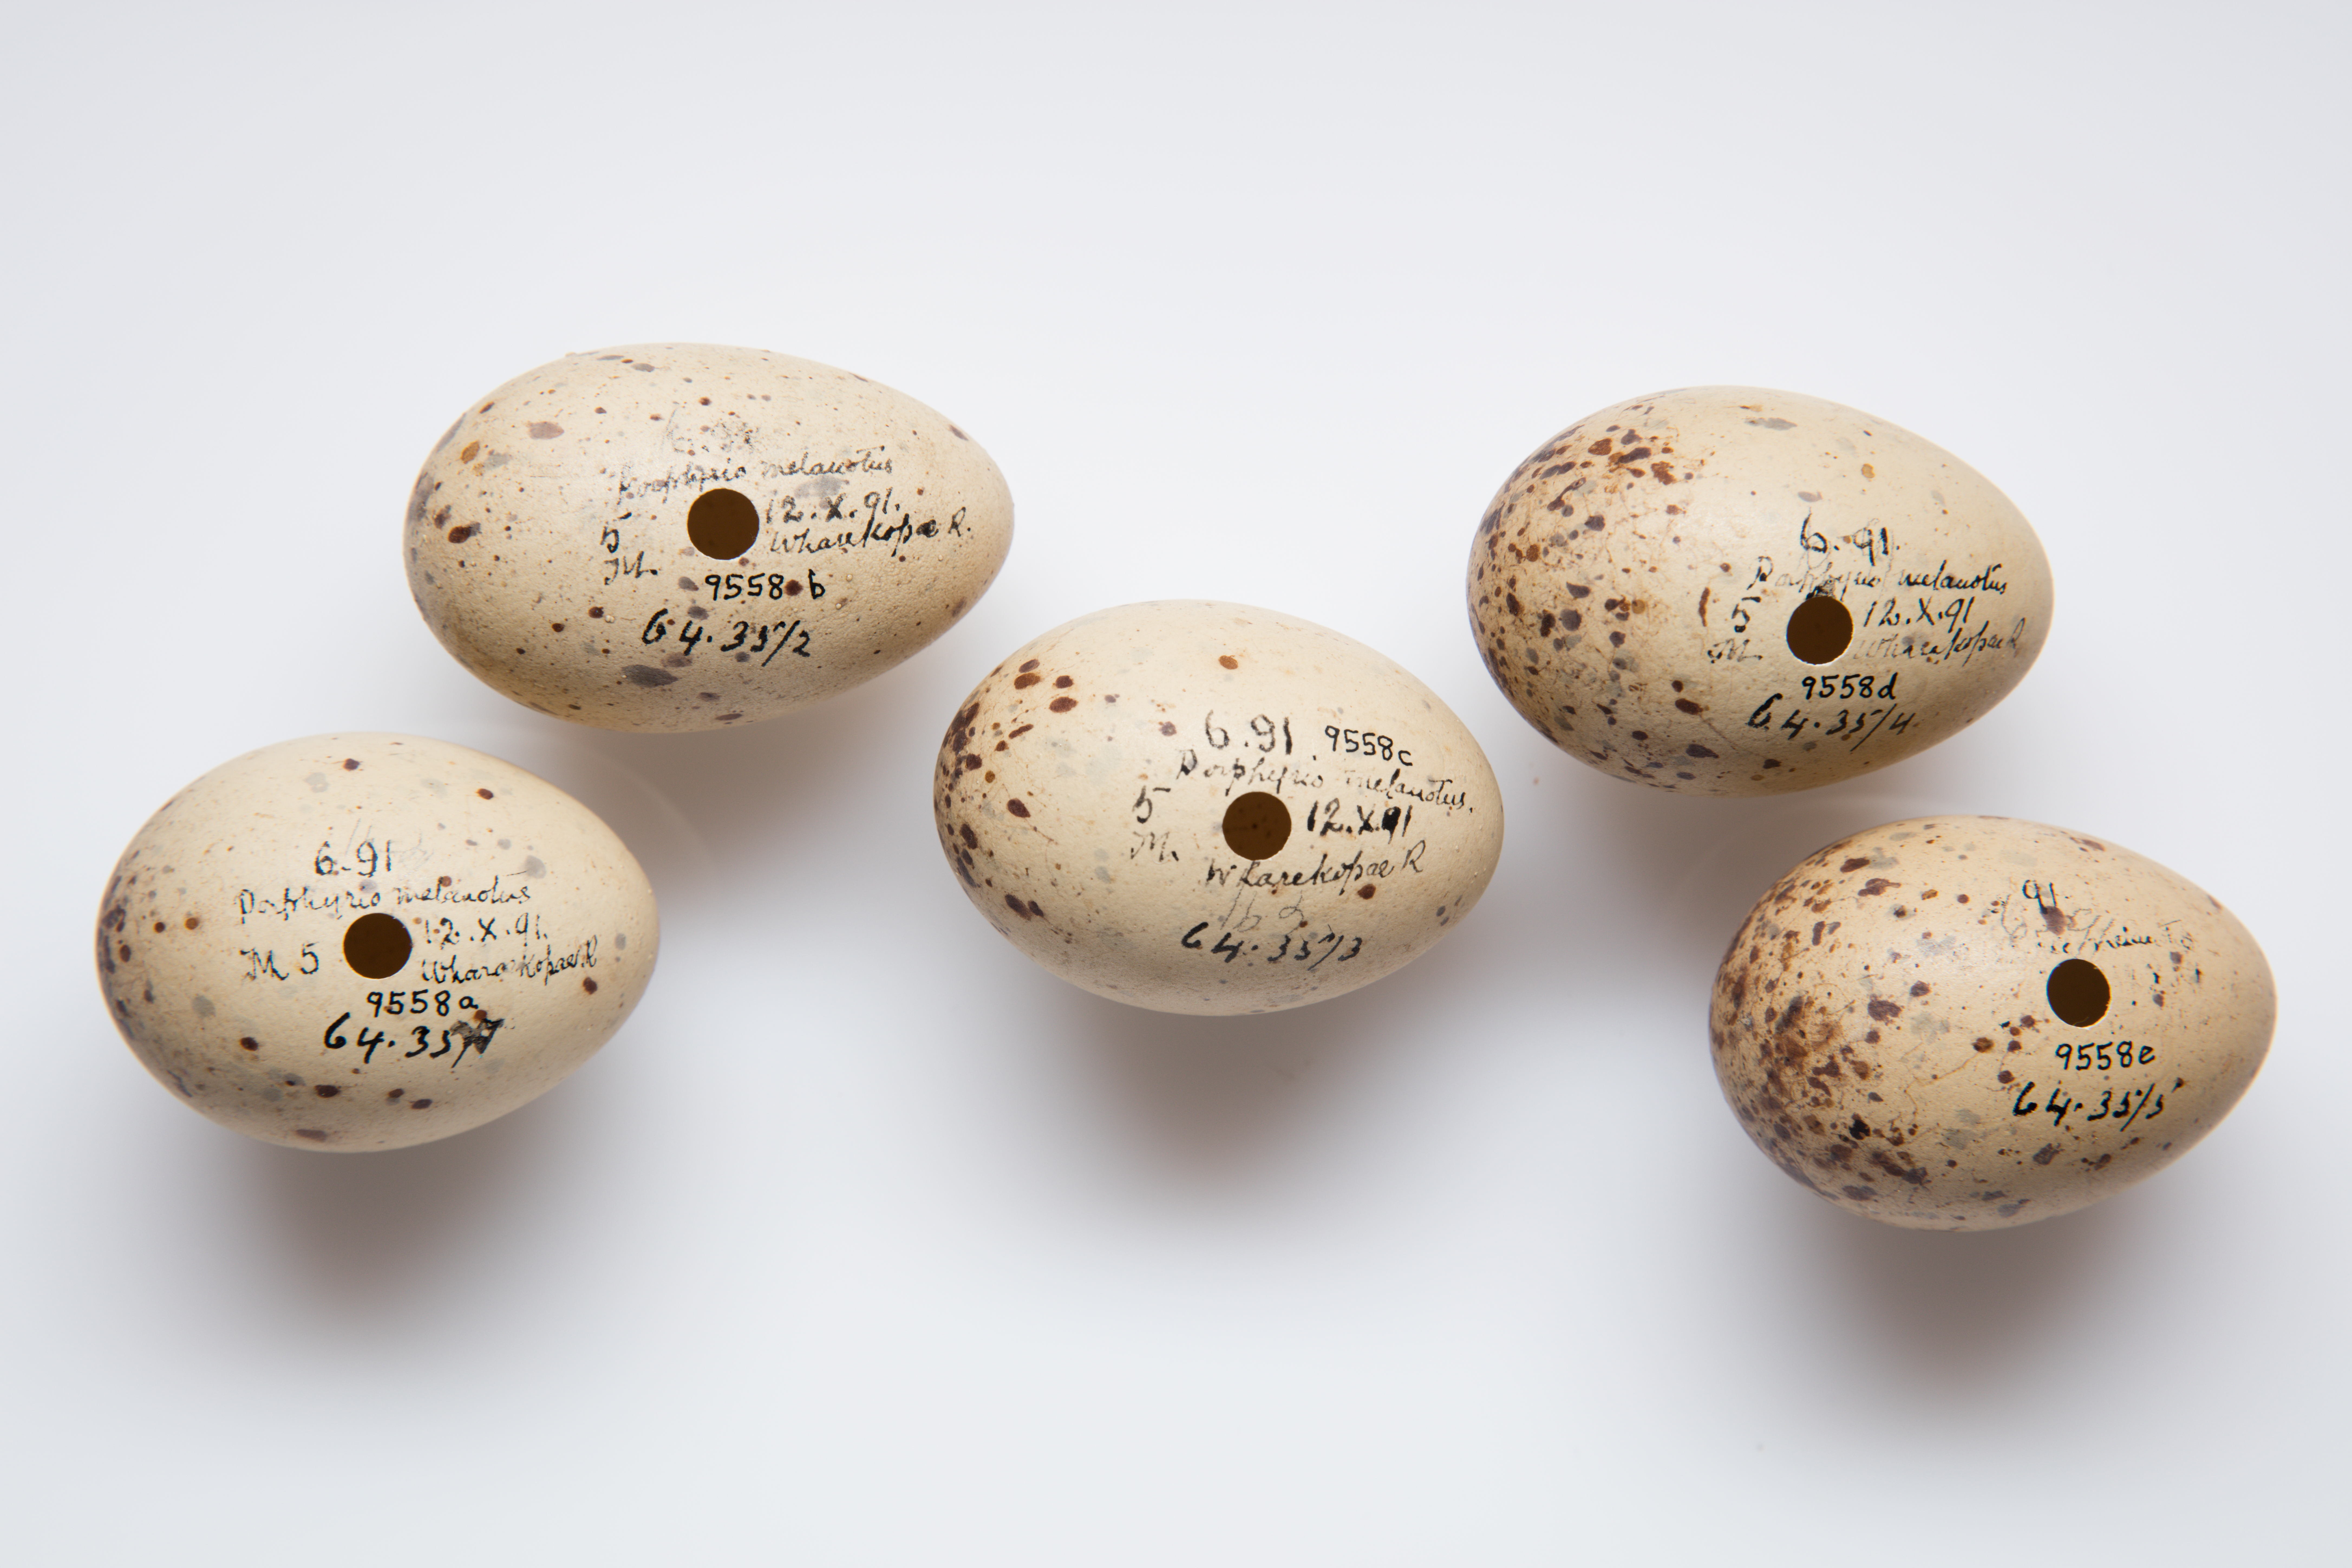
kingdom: Animalia
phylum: Chordata
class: Aves
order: Gruiformes
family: Rallidae
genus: Porphyrio
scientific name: Porphyrio melanotus
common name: Australasian swamphen
